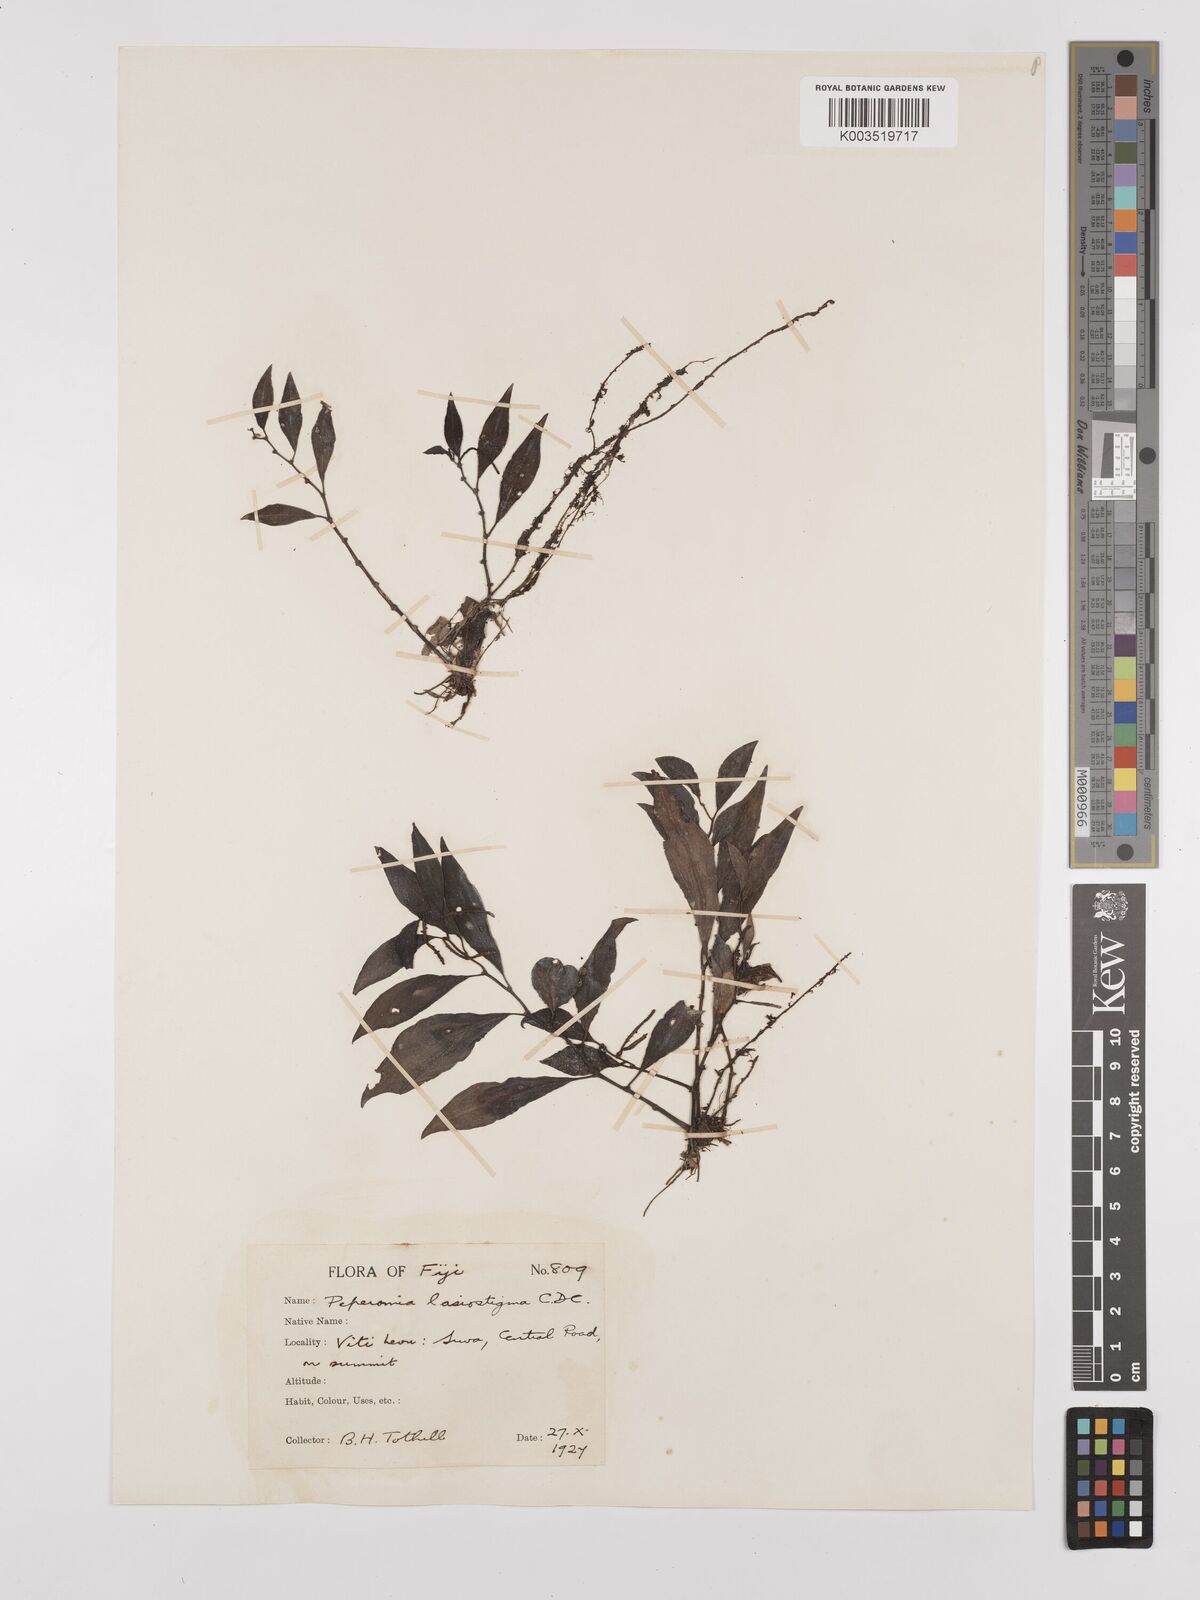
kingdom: Plantae
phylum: Tracheophyta
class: Magnoliopsida
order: Piperales
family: Piperaceae
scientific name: Piperaceae
